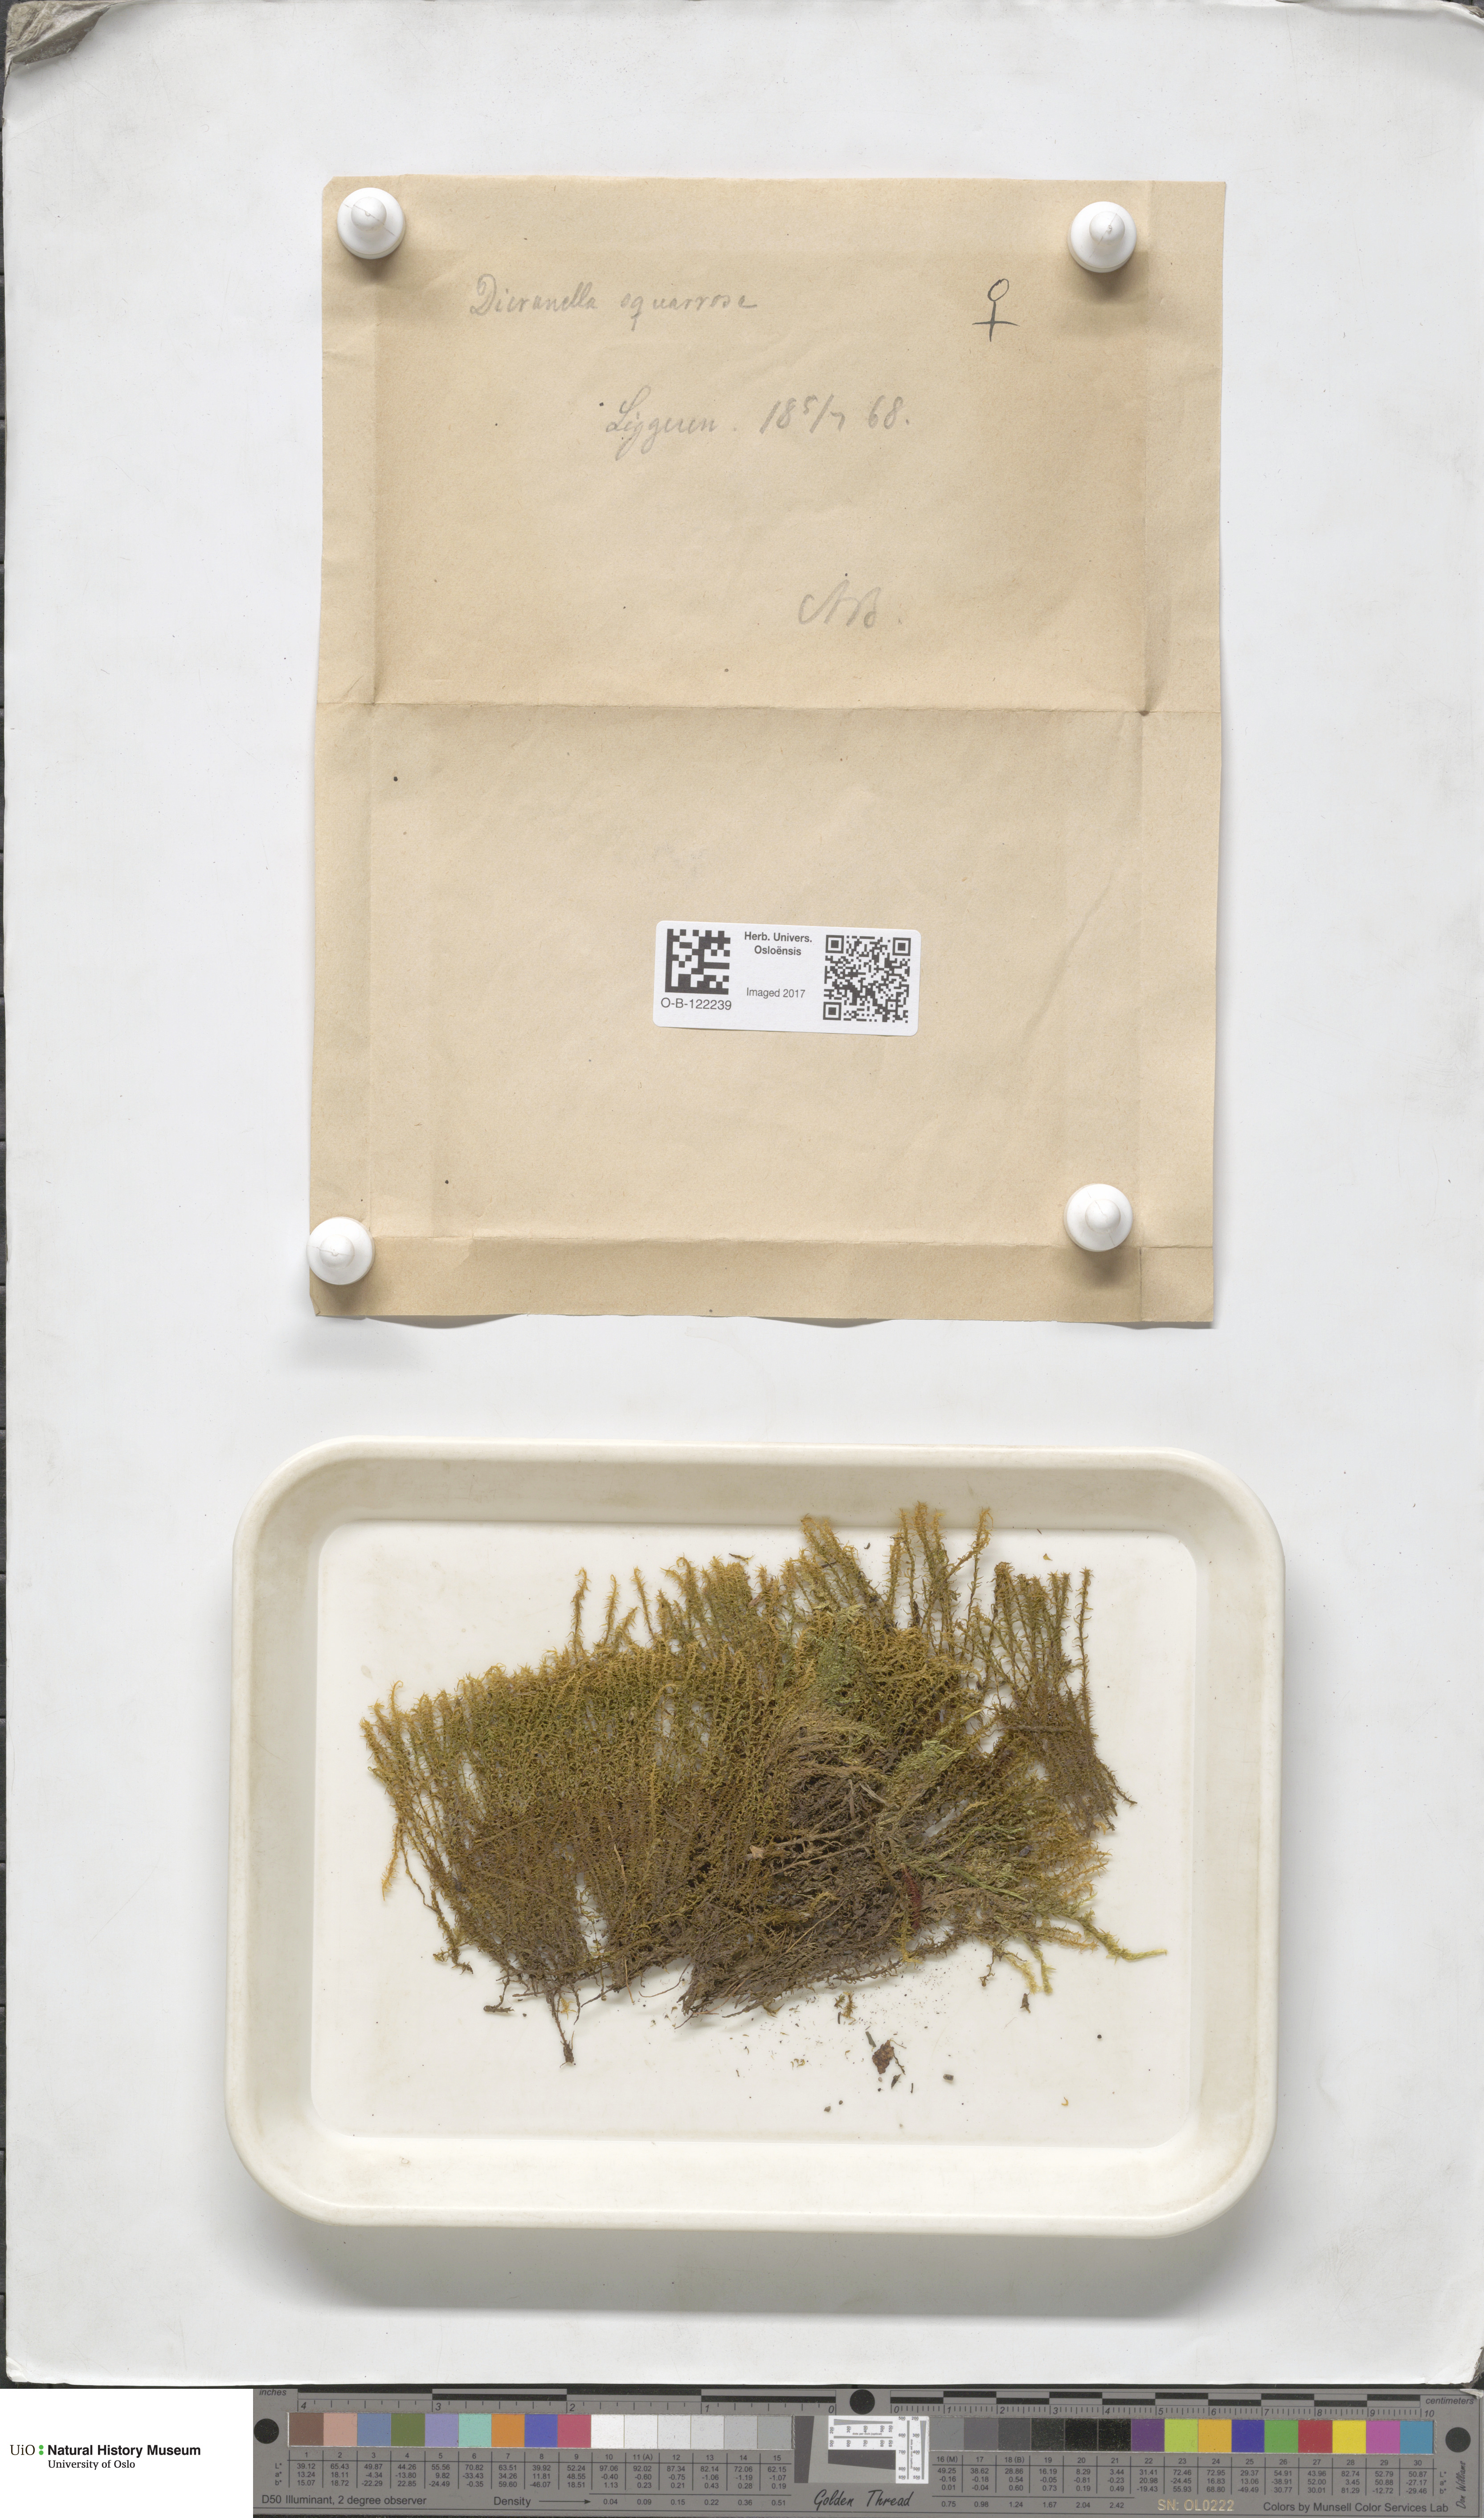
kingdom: Plantae
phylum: Bryophyta
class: Bryopsida
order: Dicranales
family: Aongstroemiaceae
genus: Diobelonella
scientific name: Diobelonella palustris
